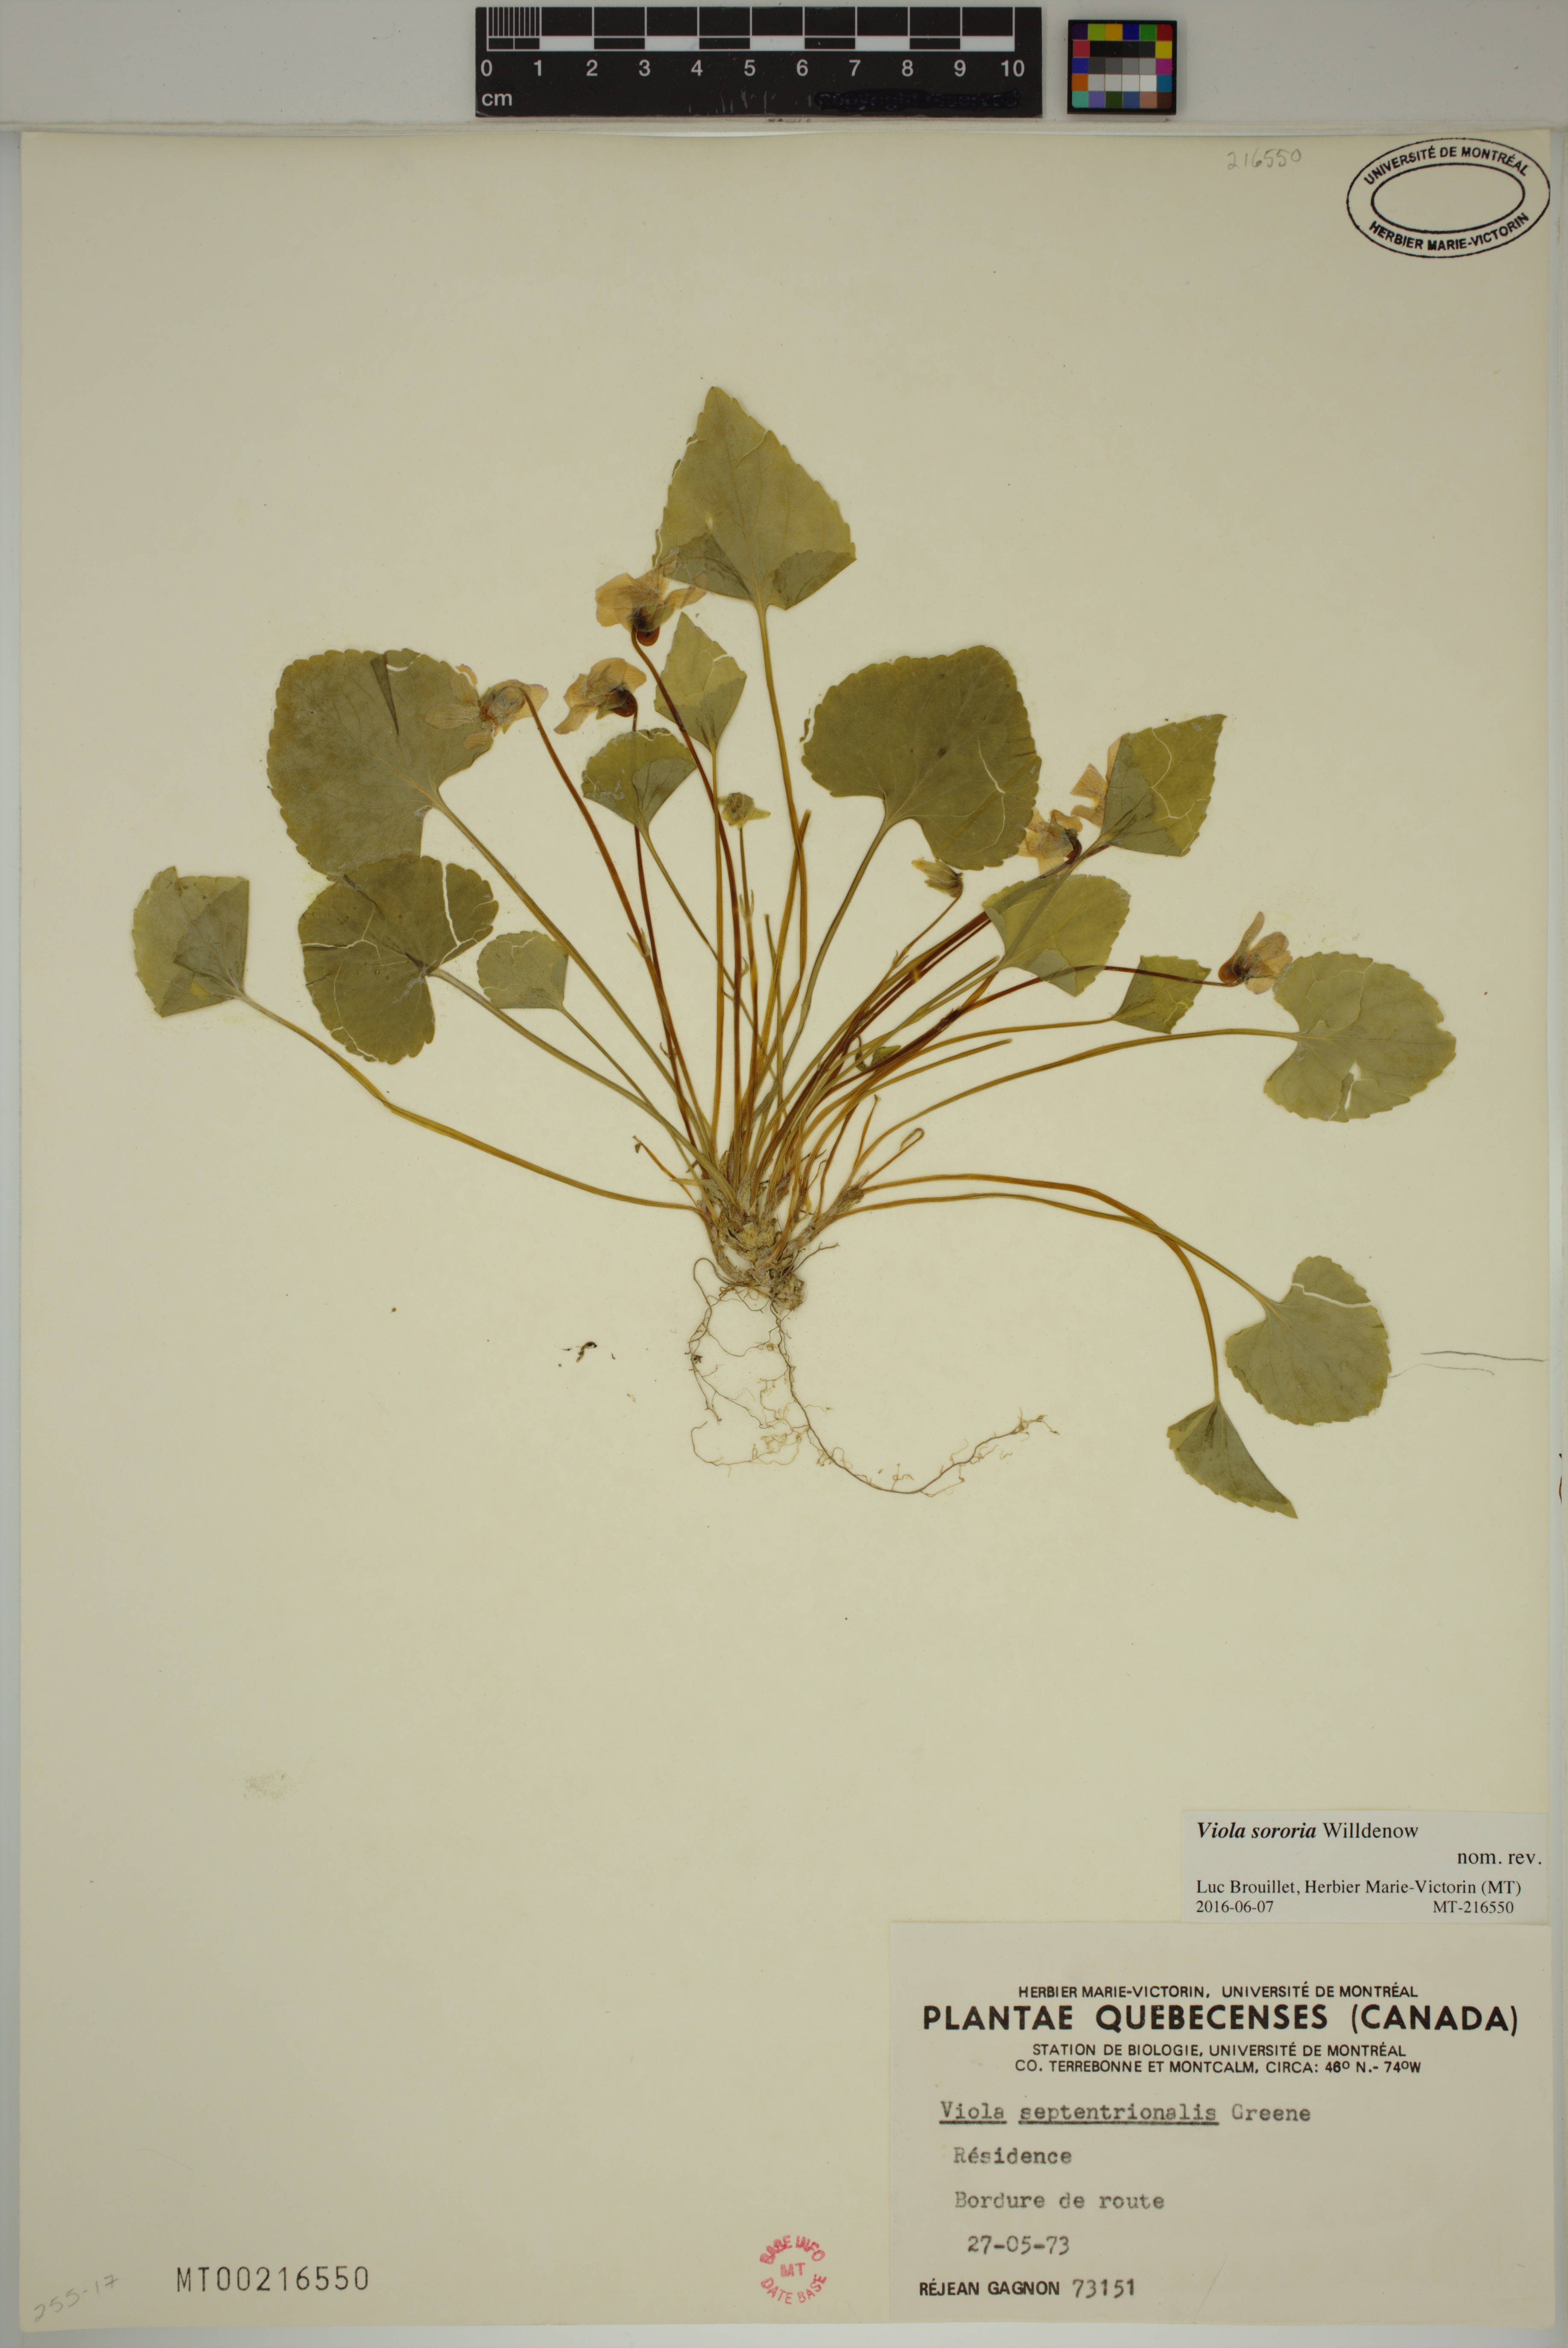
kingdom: Plantae
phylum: Tracheophyta
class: Magnoliopsida
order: Malpighiales
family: Violaceae
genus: Viola
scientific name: Viola sororia
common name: Dooryard violet
